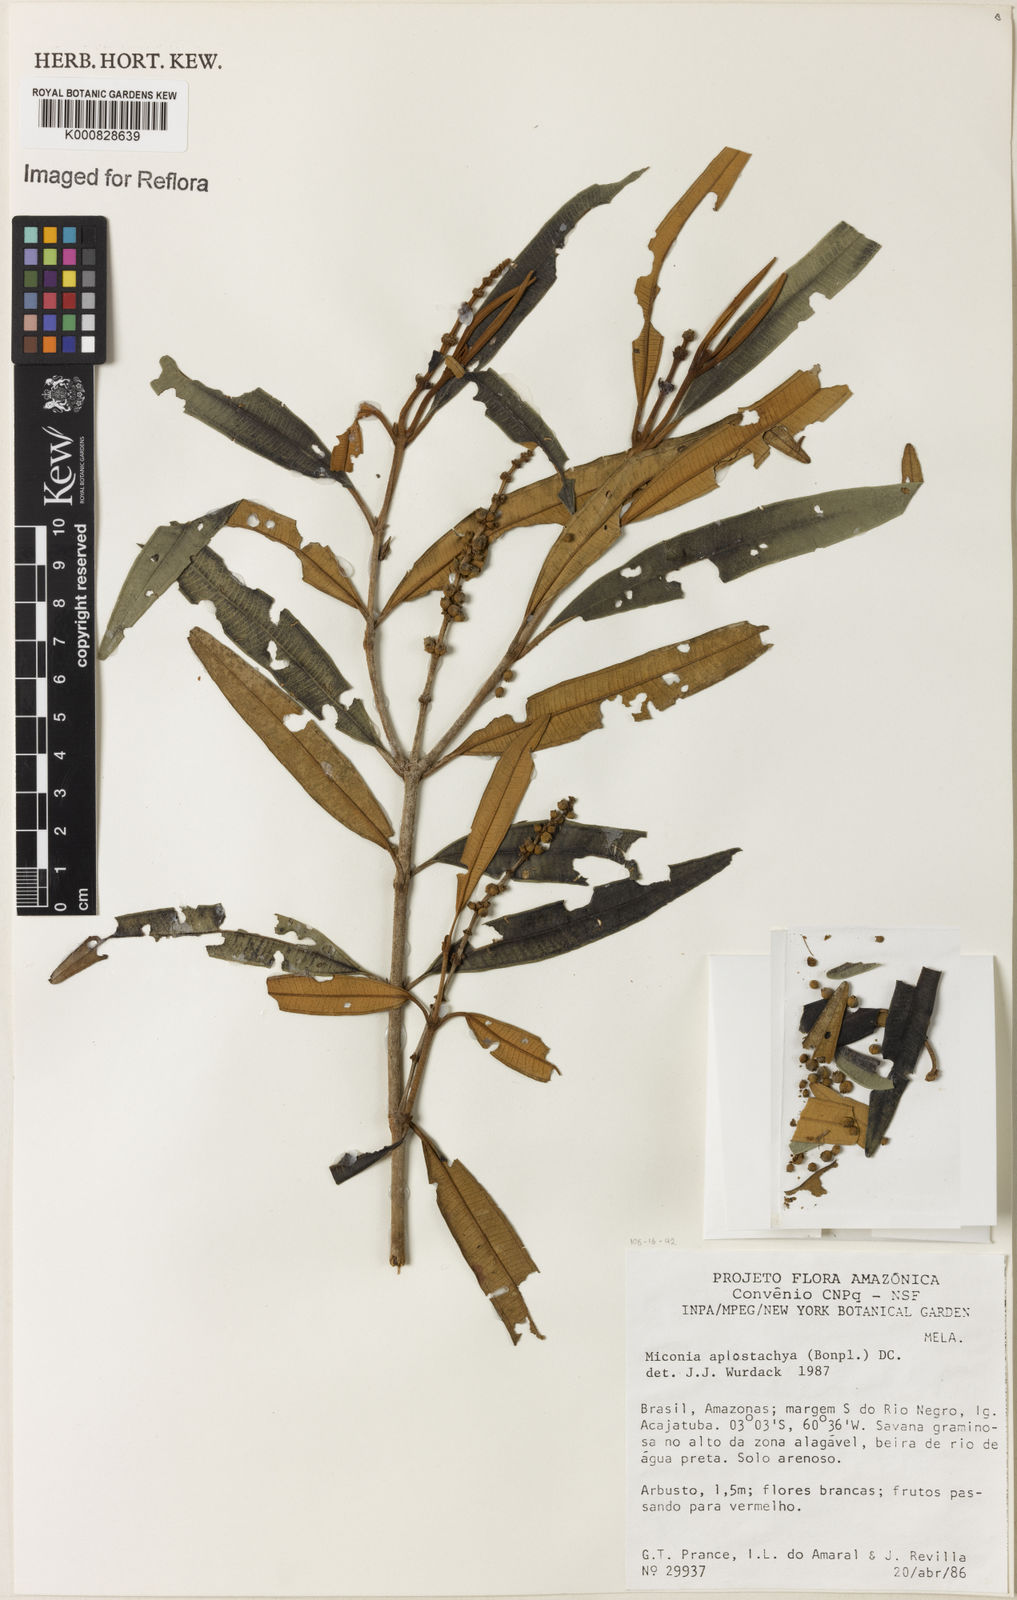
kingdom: Plantae
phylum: Tracheophyta
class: Magnoliopsida
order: Myrtales
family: Melastomataceae
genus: Miconia
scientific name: Miconia aplostachya
